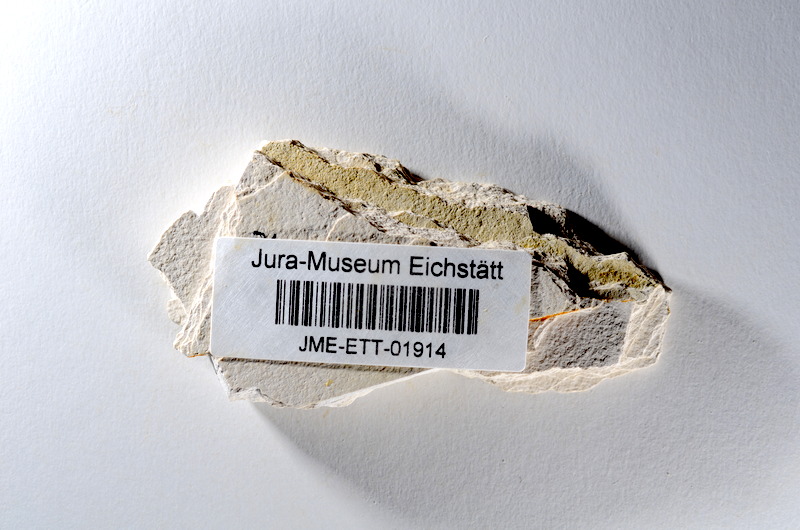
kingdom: Animalia
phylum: Chordata
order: Salmoniformes
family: Orthogonikleithridae
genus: Orthogonikleithrus
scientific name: Orthogonikleithrus hoelli
